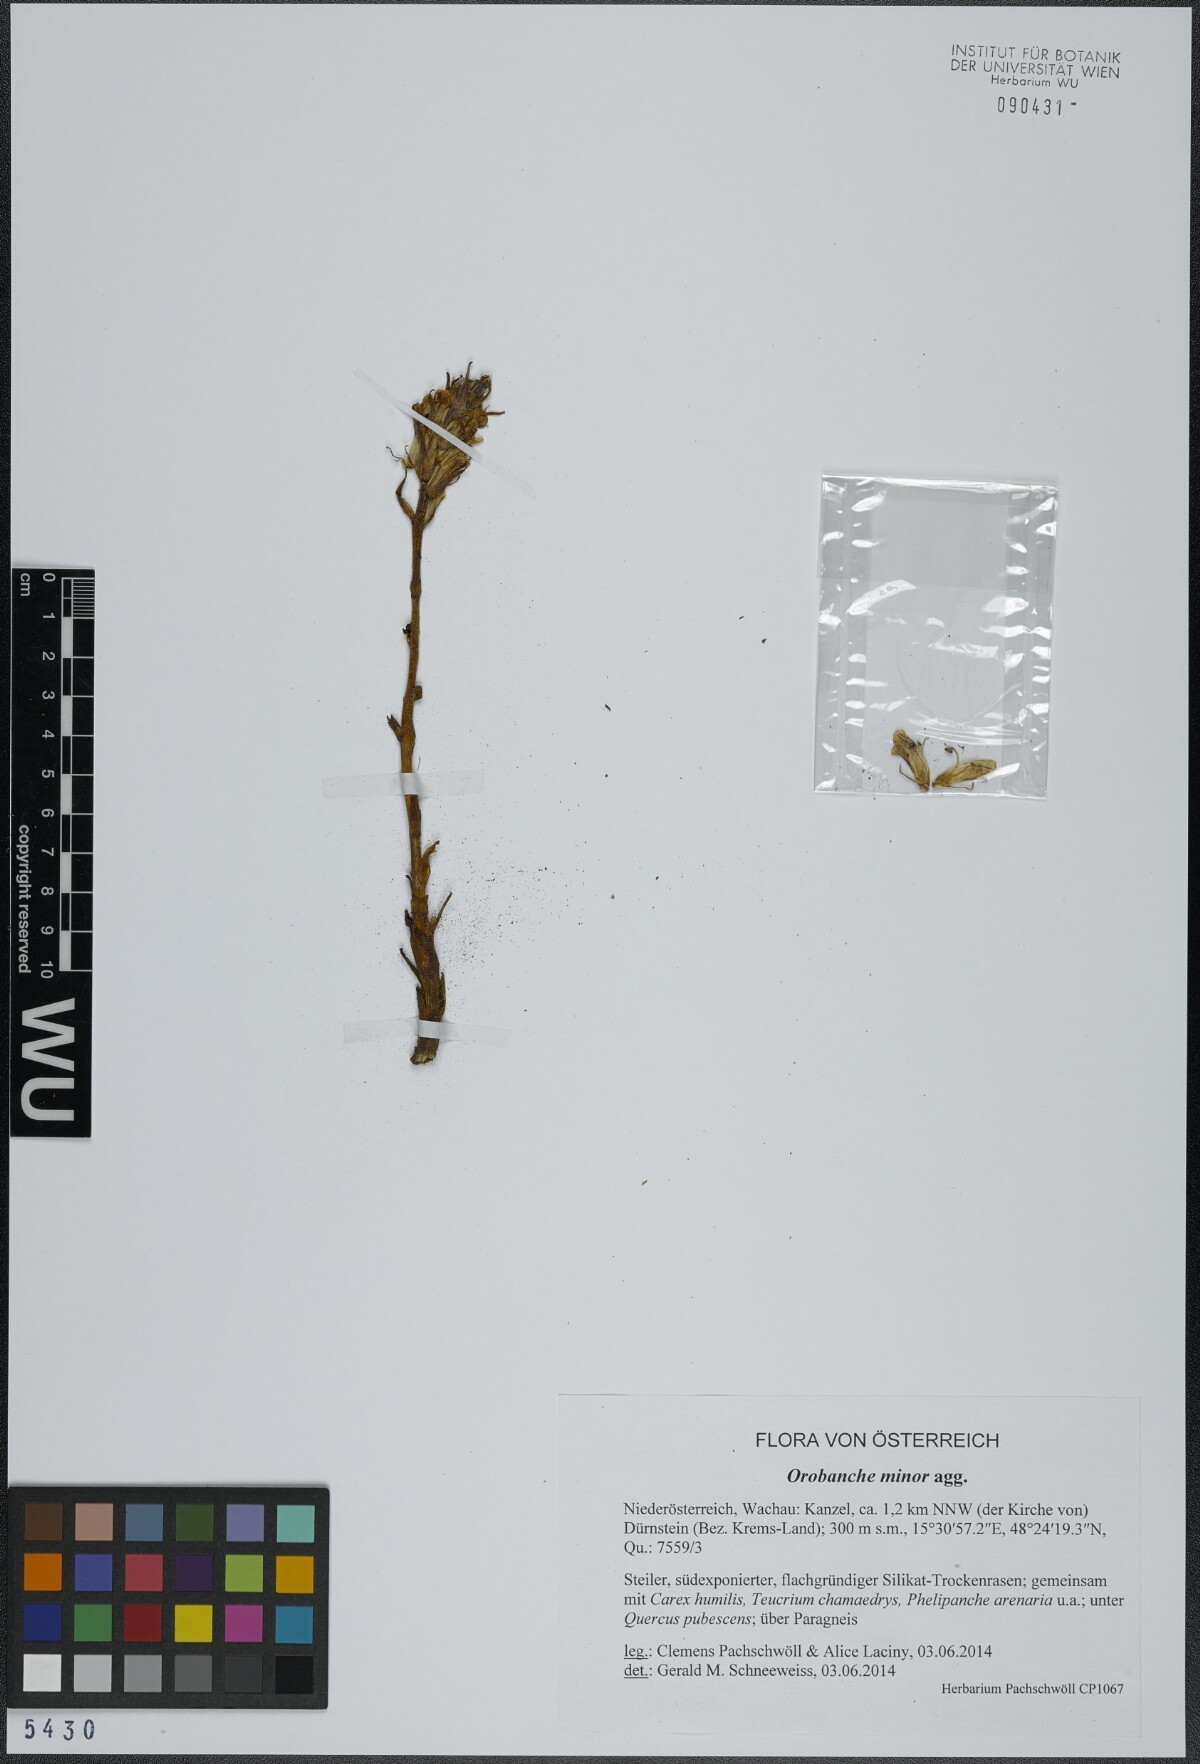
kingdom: Plantae
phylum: Tracheophyta
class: Magnoliopsida
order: Lamiales
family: Orobanchaceae
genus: Orobanche
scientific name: Orobanche minor
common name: Common broomrape
